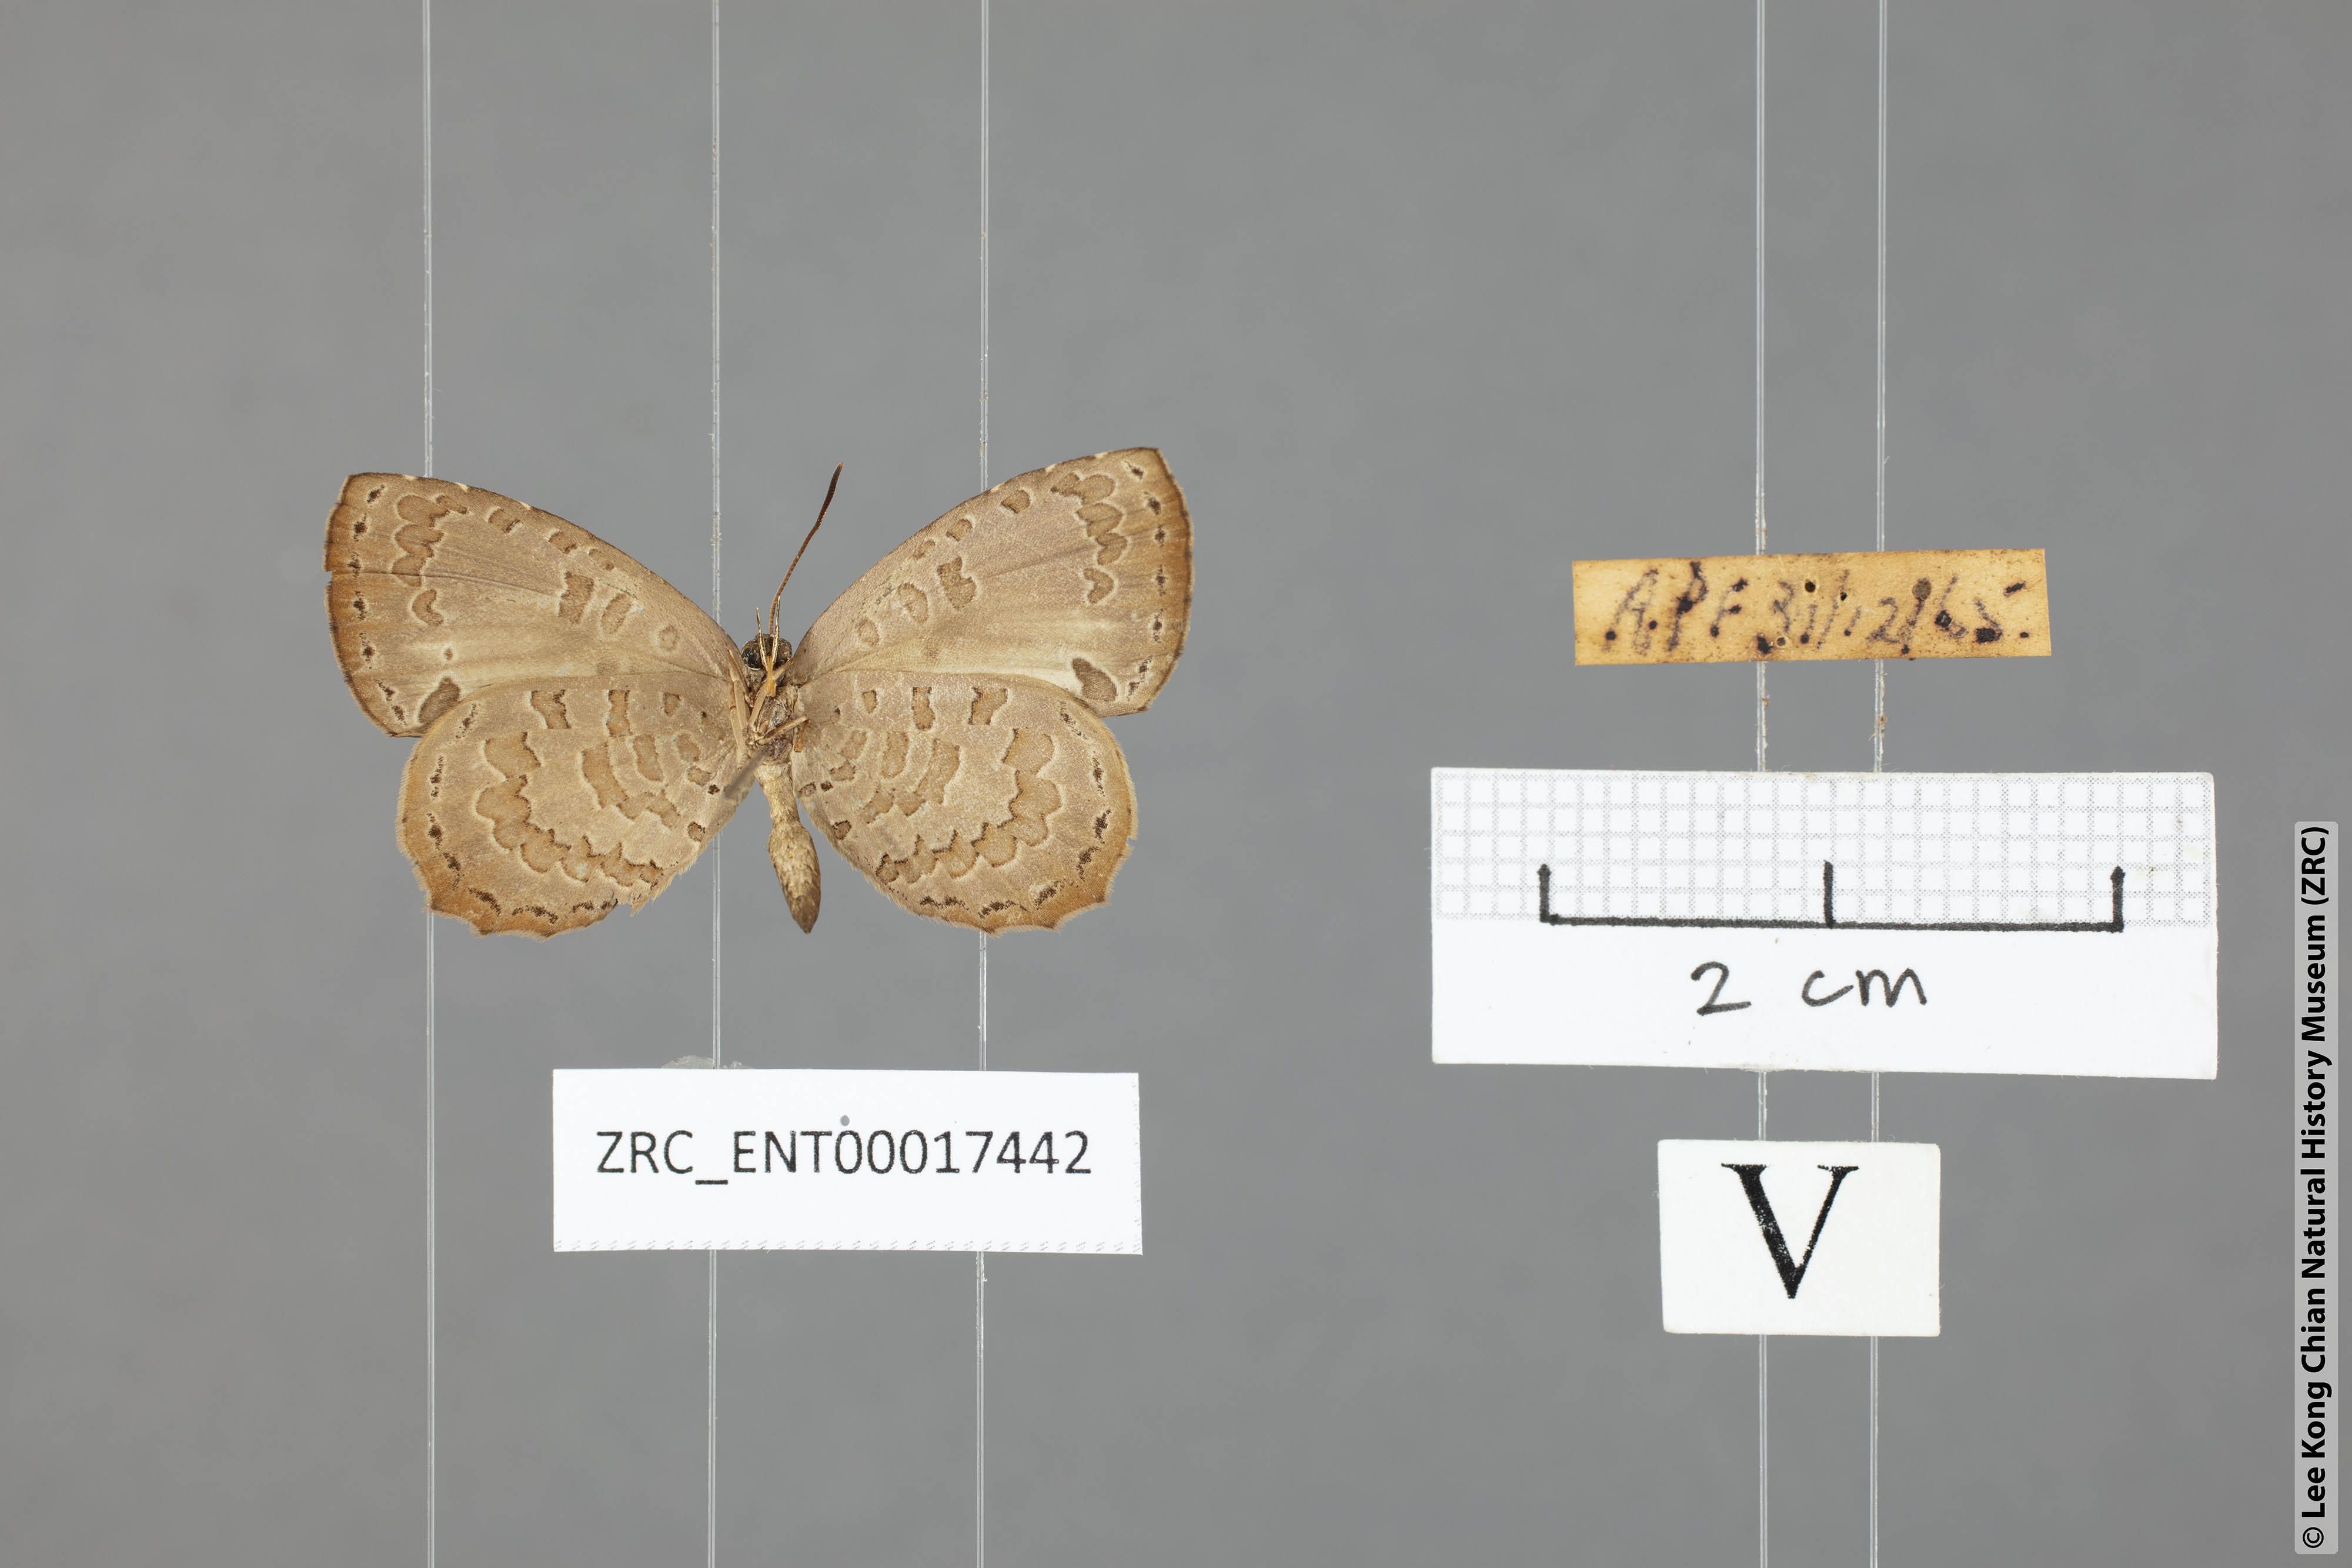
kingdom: Animalia
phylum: Arthropoda
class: Insecta
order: Lepidoptera
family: Lycaenidae
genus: Miletus
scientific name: Miletus gaesa
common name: Brown brownie
